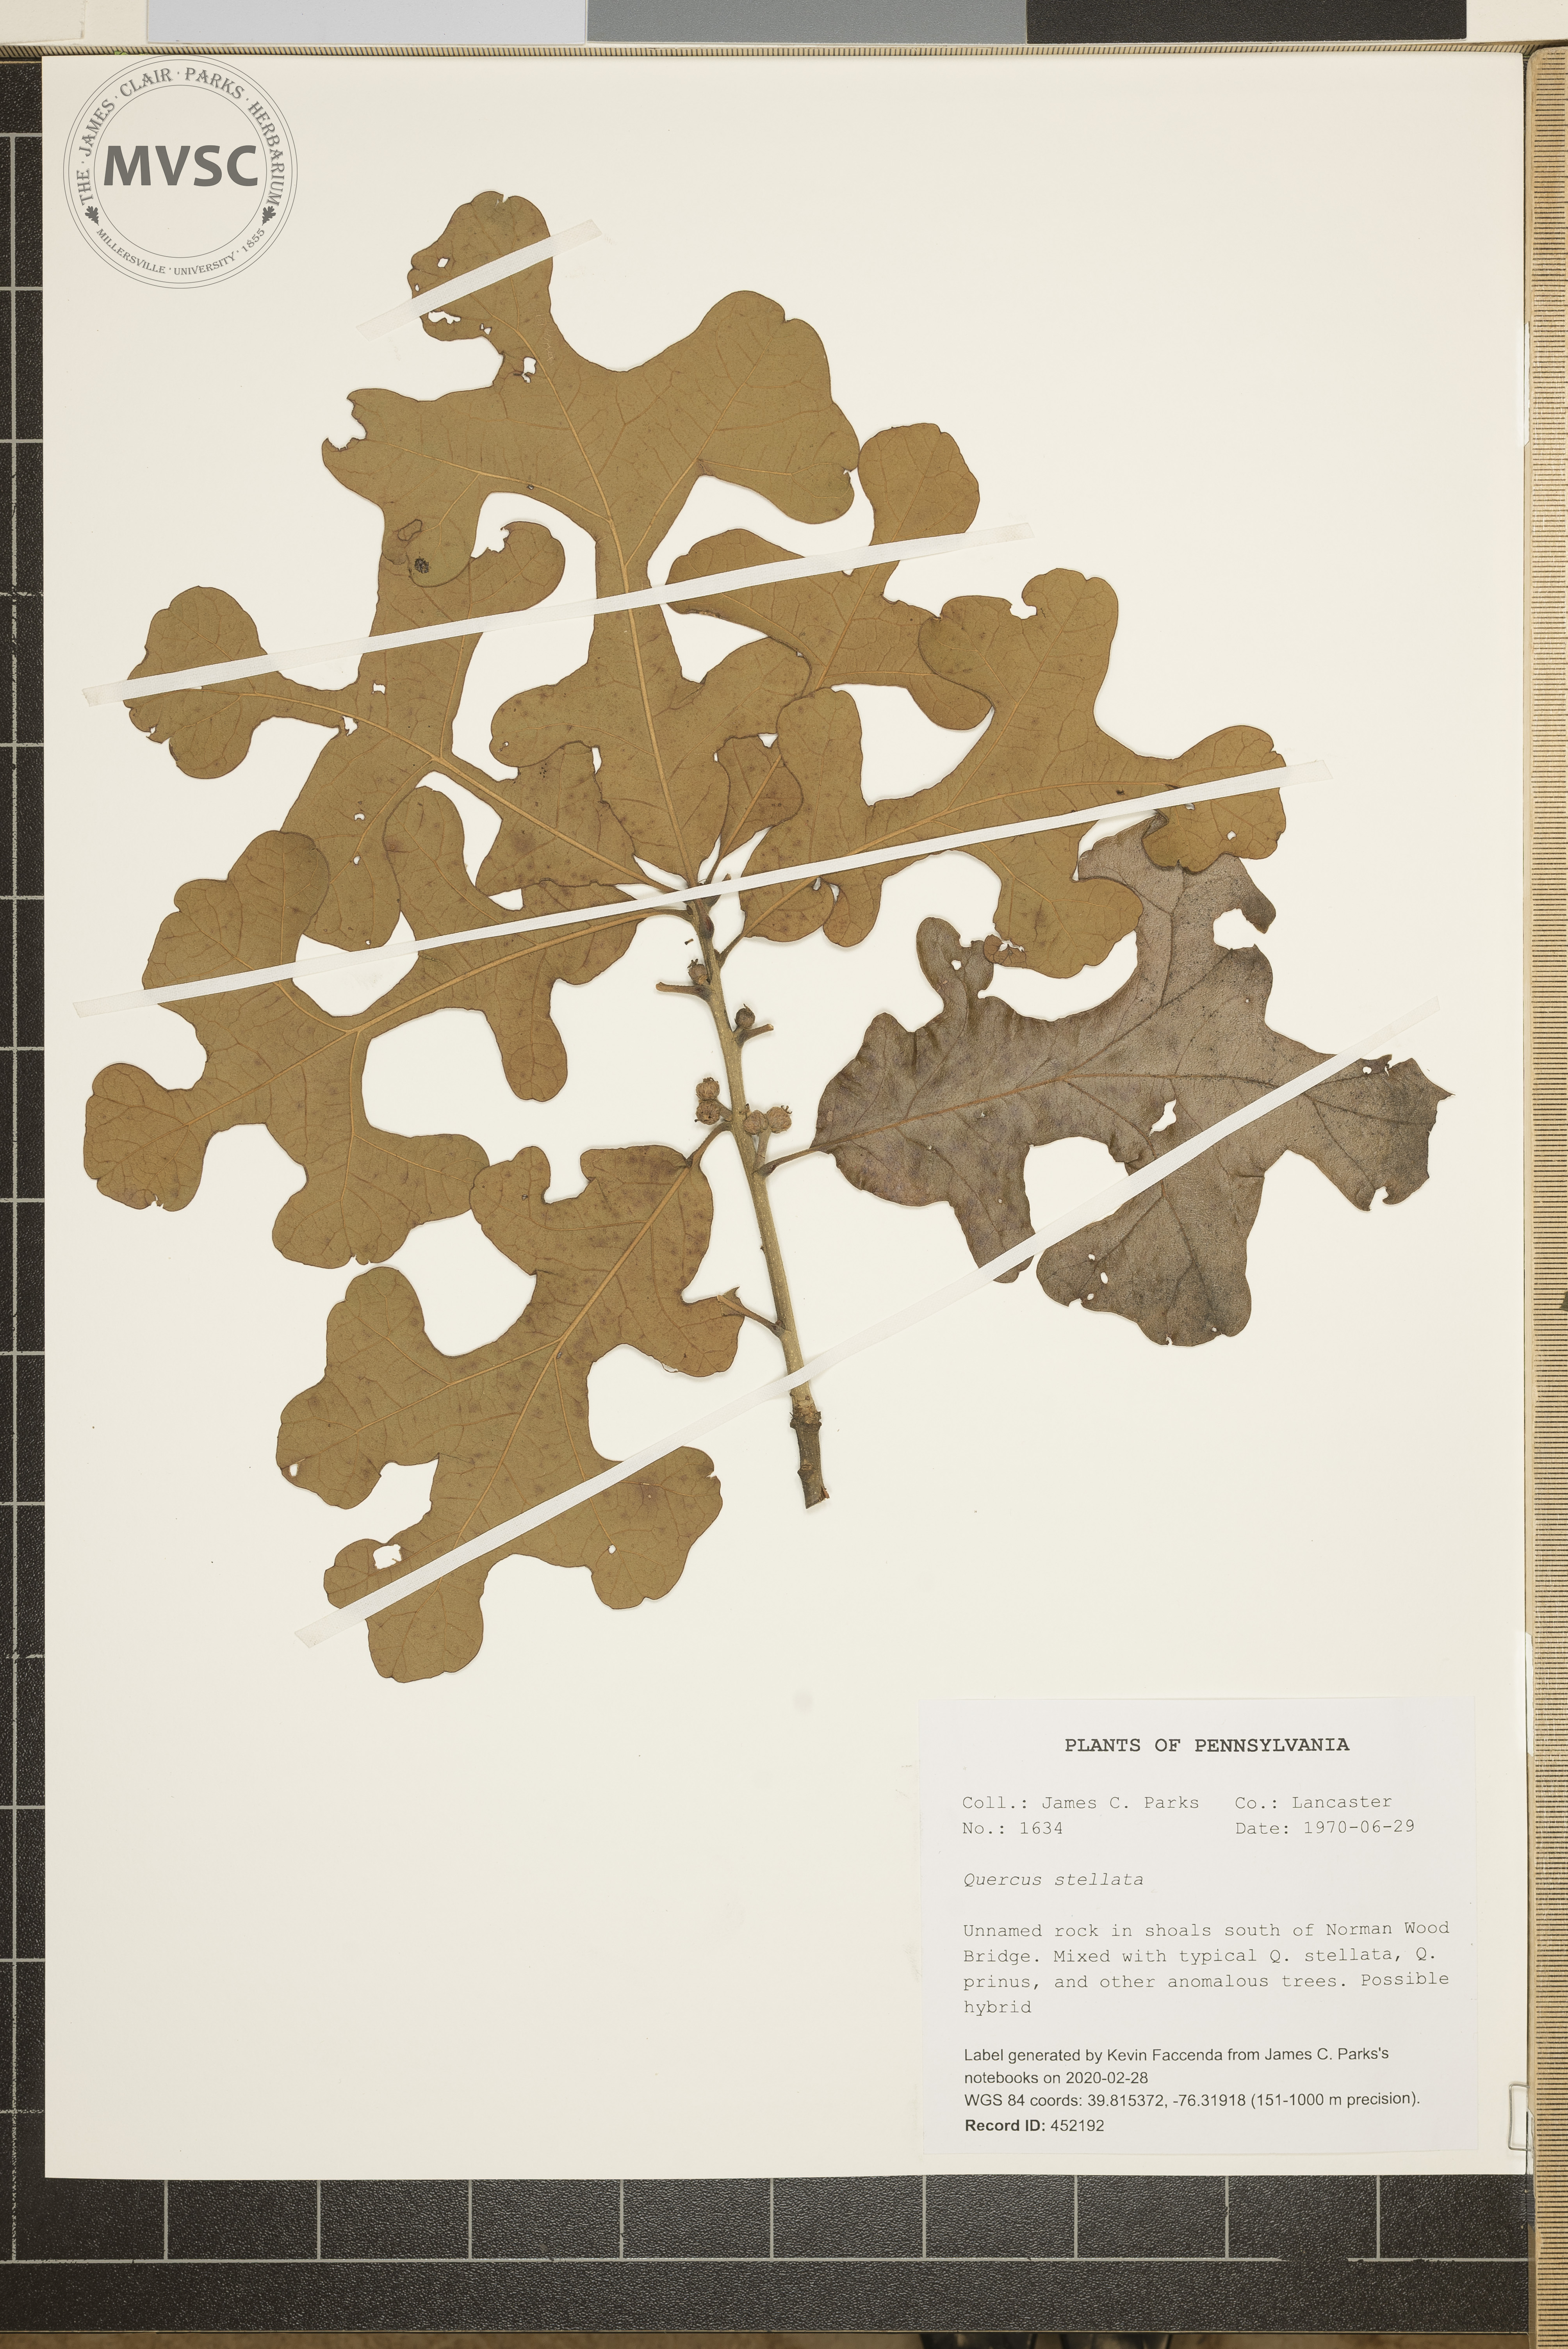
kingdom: Plantae
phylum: Tracheophyta
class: Magnoliopsida
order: Fagales
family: Fagaceae
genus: Quercus
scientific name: Quercus stellata
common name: Post oak
